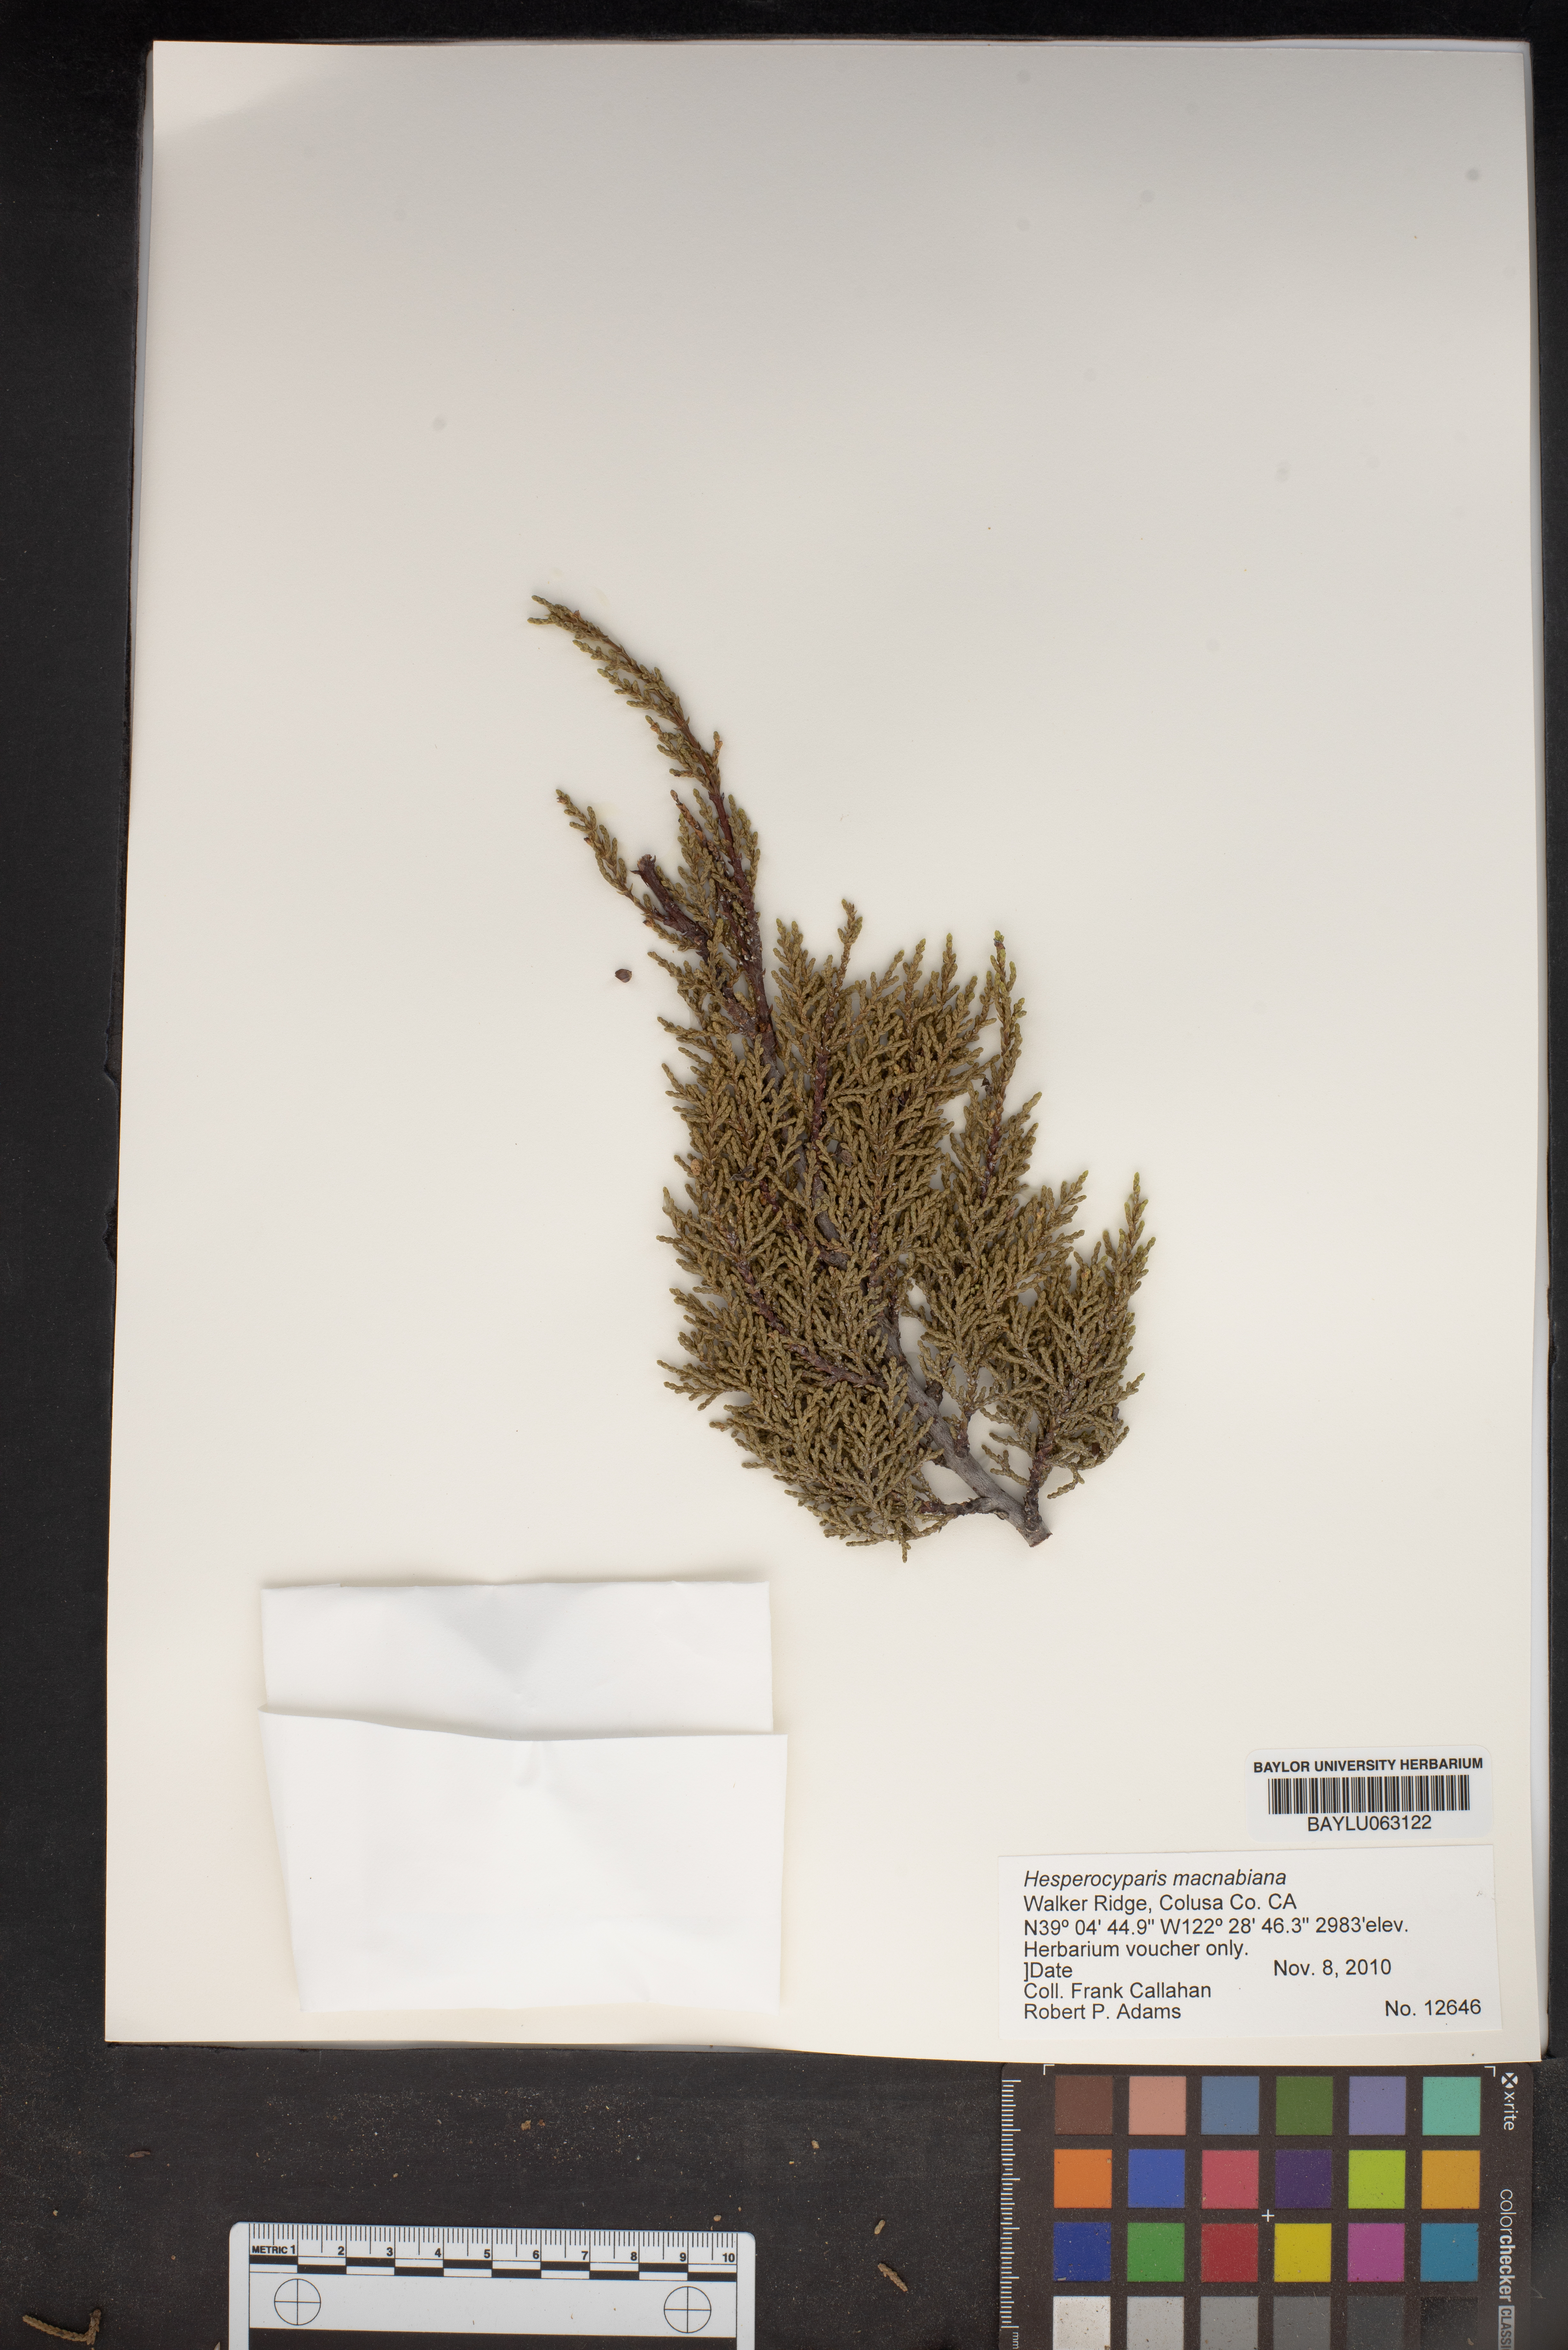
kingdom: Plantae
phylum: Tracheophyta
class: Pinopsida
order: Pinales
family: Cupressaceae
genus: Cupressus
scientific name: Cupressus macnabiana bis
